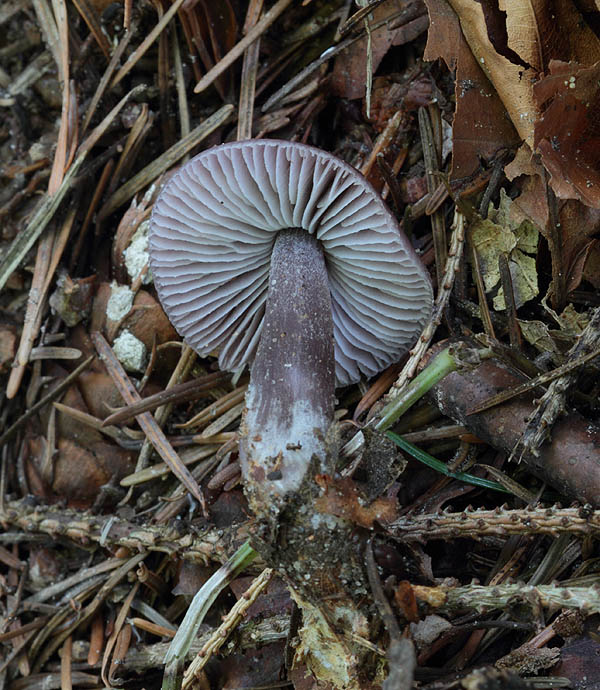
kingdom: Fungi
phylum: Basidiomycota
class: Agaricomycetes
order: Agaricales
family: Mycenaceae
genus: Prunulus
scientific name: Prunulus diosmus
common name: tobaks-huesvamp
